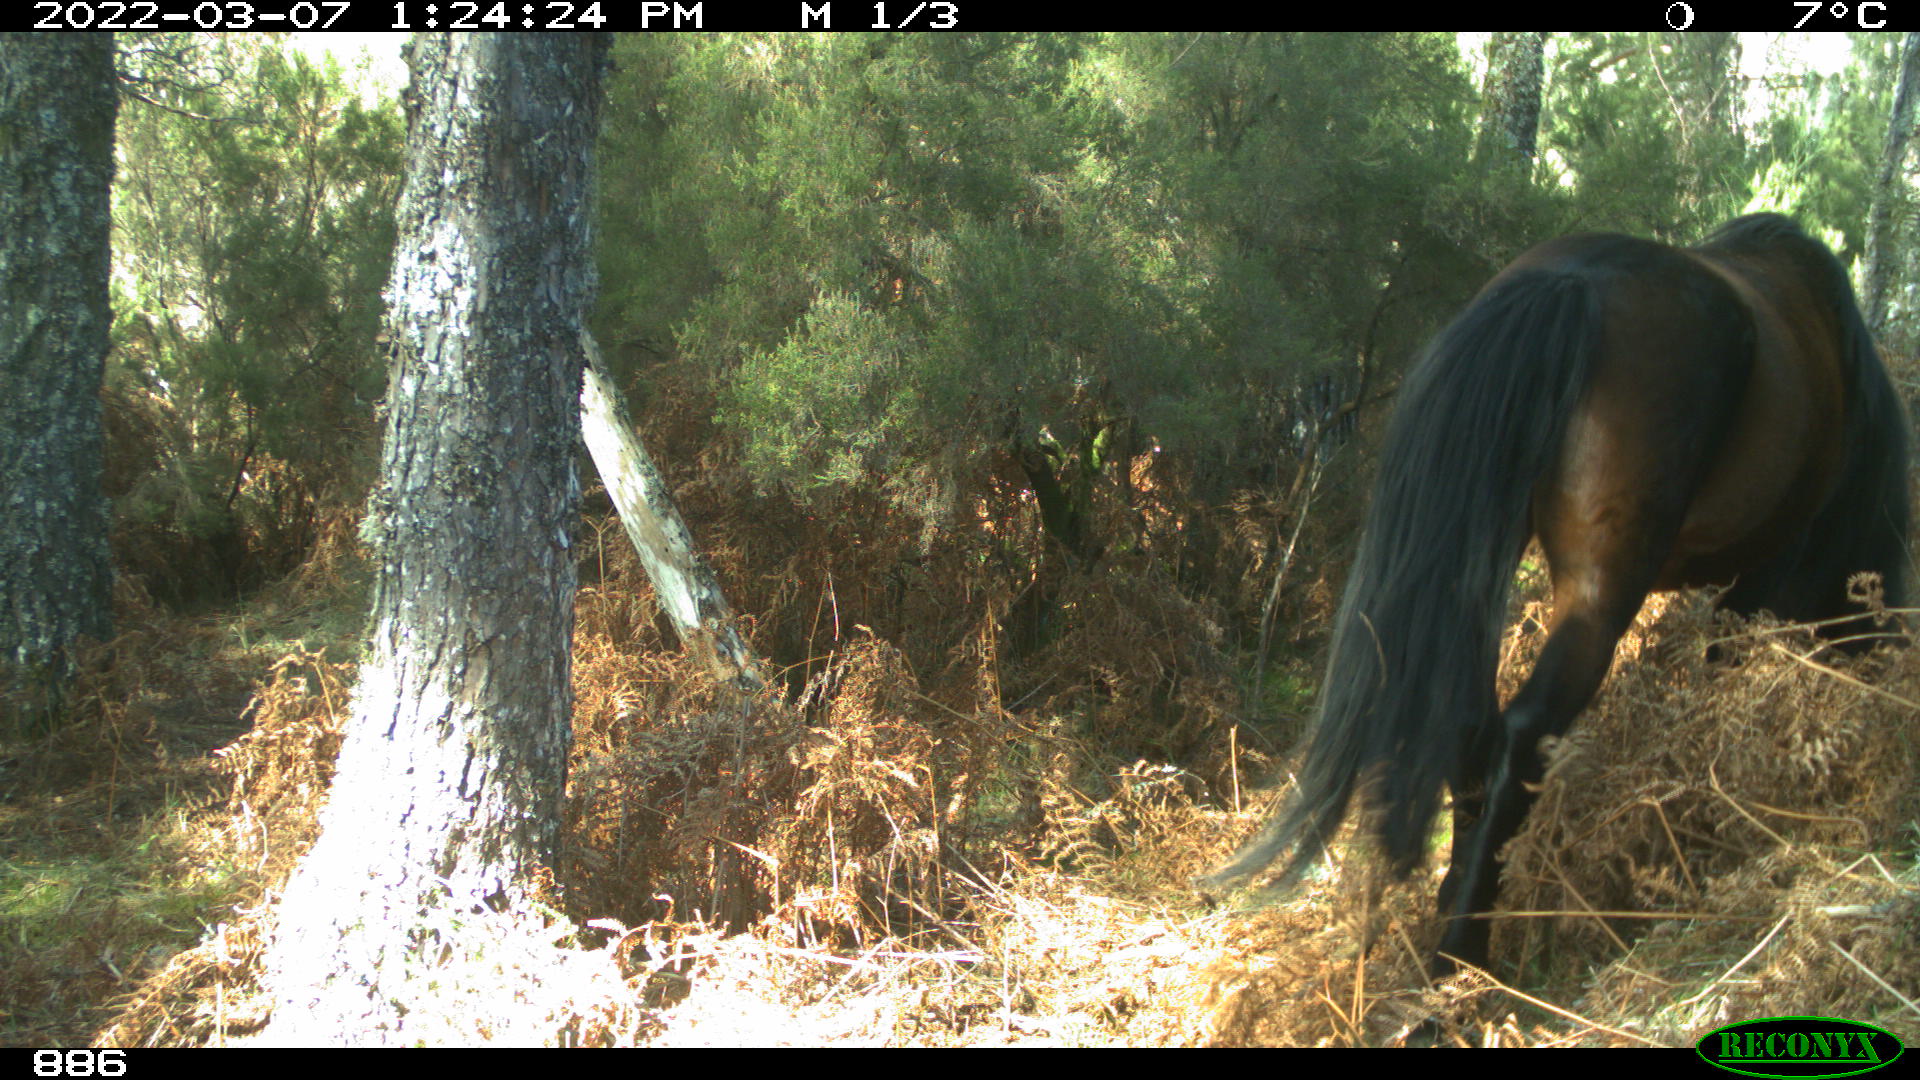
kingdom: Animalia
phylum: Chordata
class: Mammalia
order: Perissodactyla
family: Equidae
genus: Equus
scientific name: Equus caballus
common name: Horse
